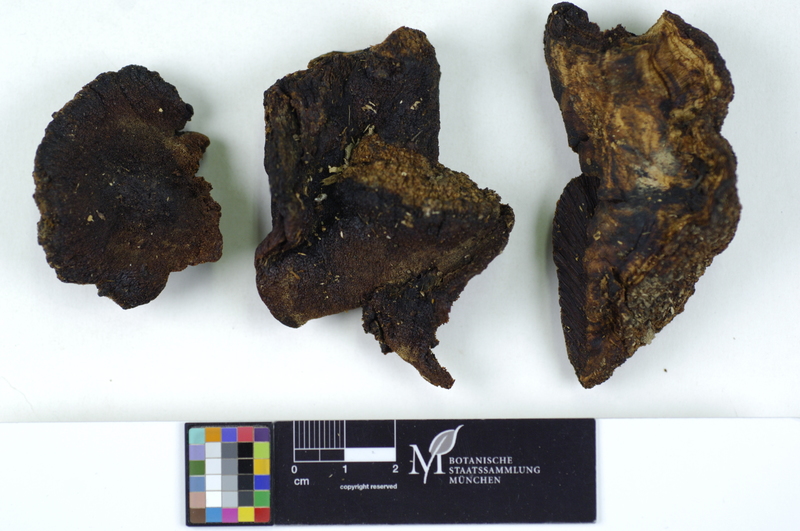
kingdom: Plantae
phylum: Tracheophyta
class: Magnoliopsida
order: Rosales
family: Rosaceae
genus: Malus
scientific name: Malus
